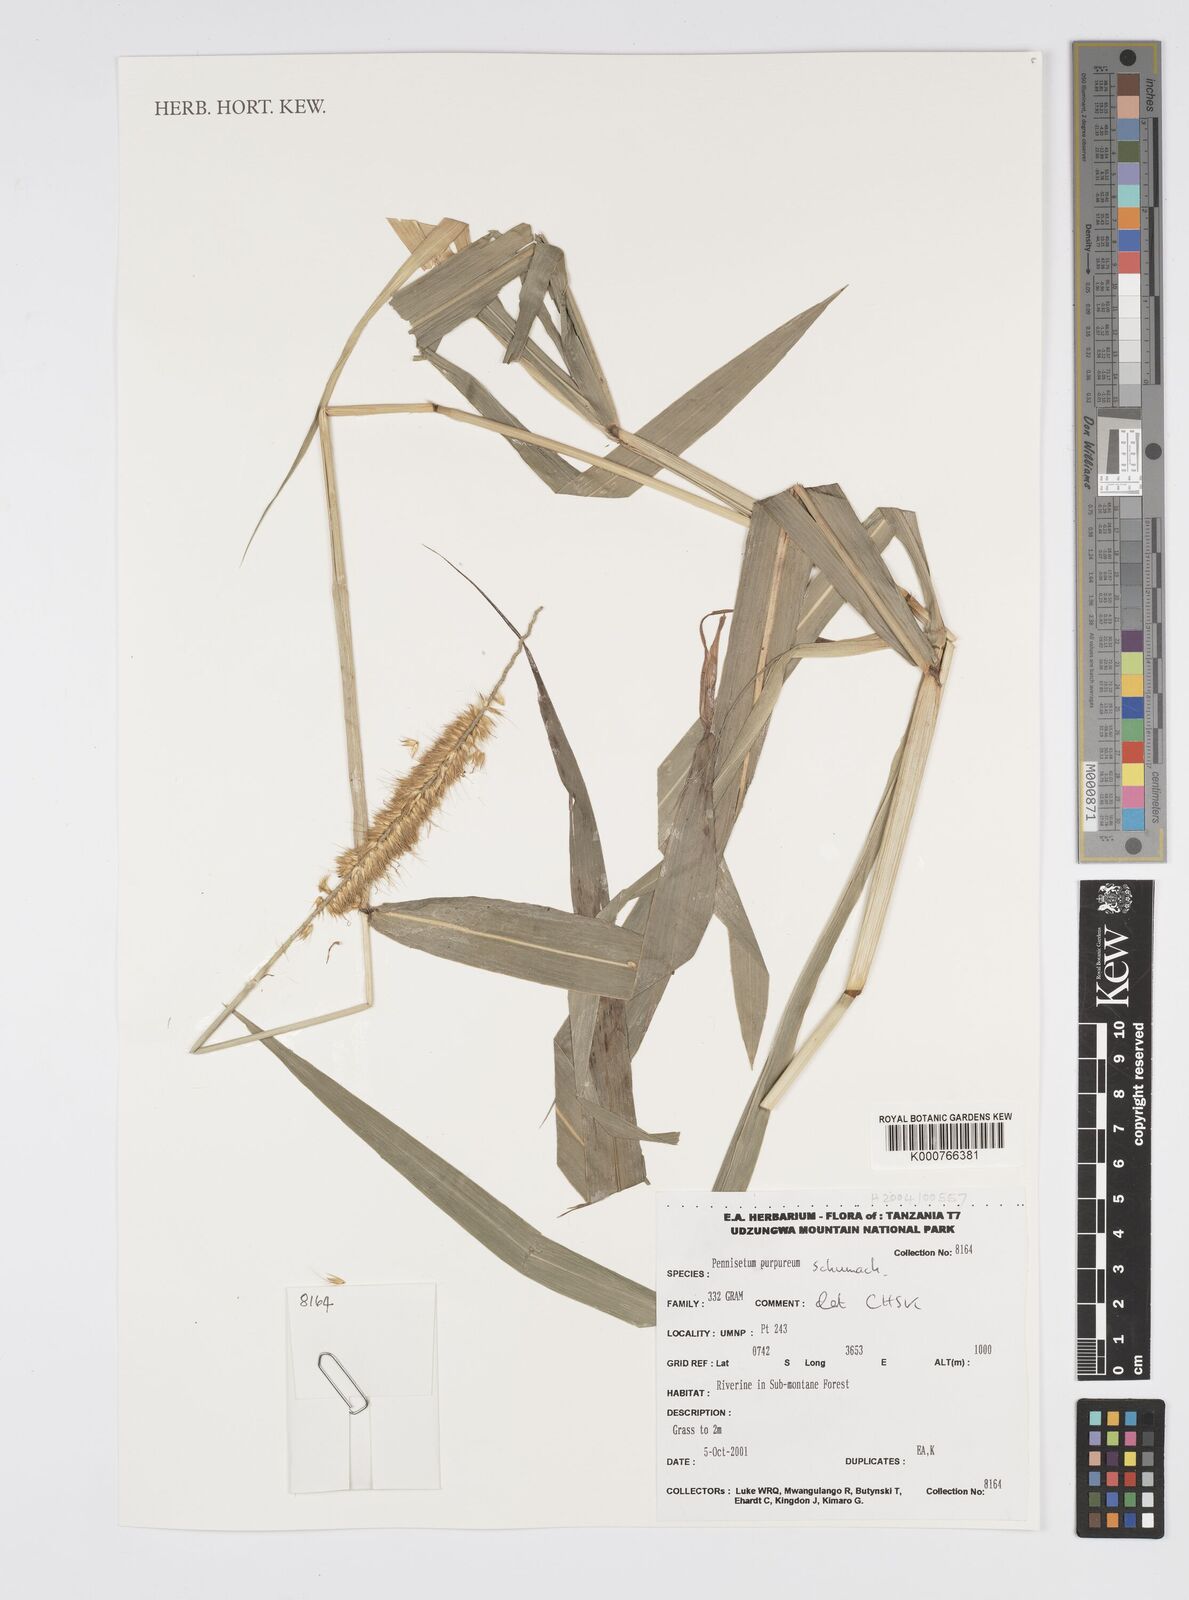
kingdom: Plantae
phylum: Tracheophyta
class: Liliopsida
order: Poales
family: Poaceae
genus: Cenchrus
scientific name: Cenchrus purpureus
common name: Elephant grass
